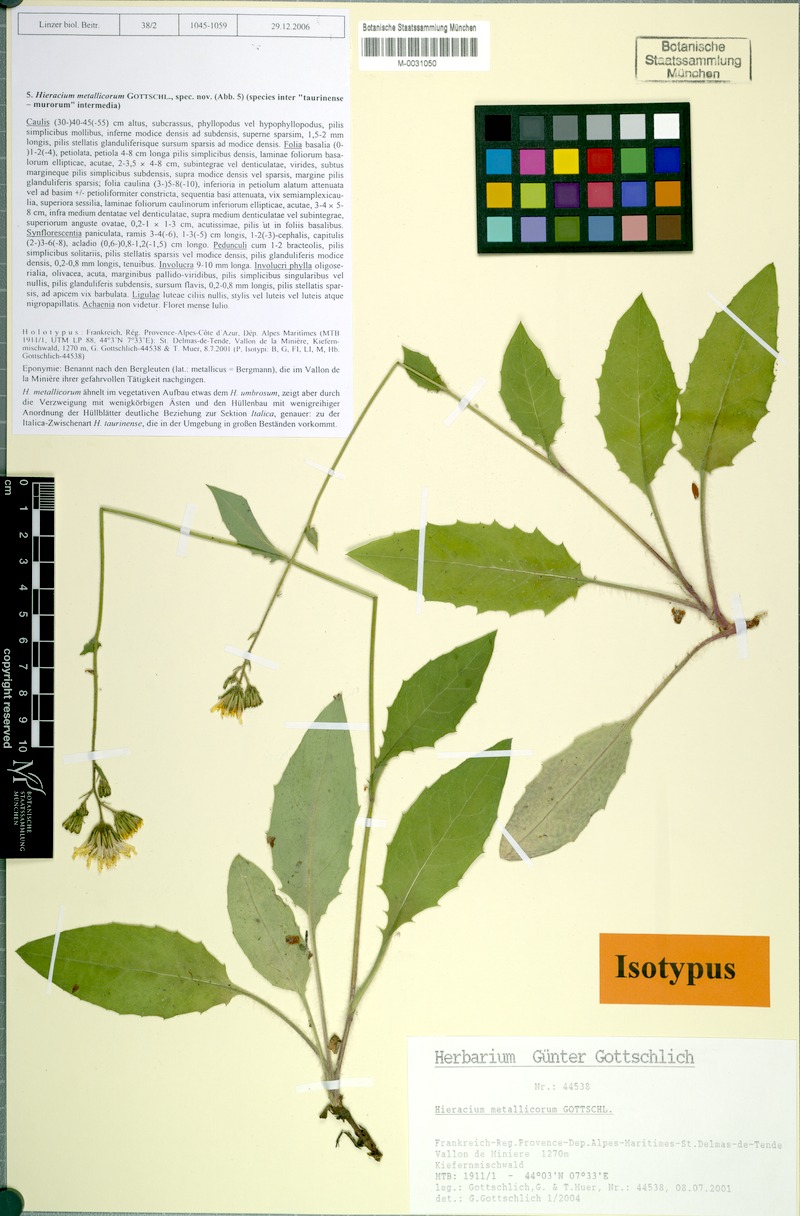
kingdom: Plantae
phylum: Tracheophyta
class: Magnoliopsida
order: Asterales
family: Asteraceae
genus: Hieracium
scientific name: Hieracium metallicorum
